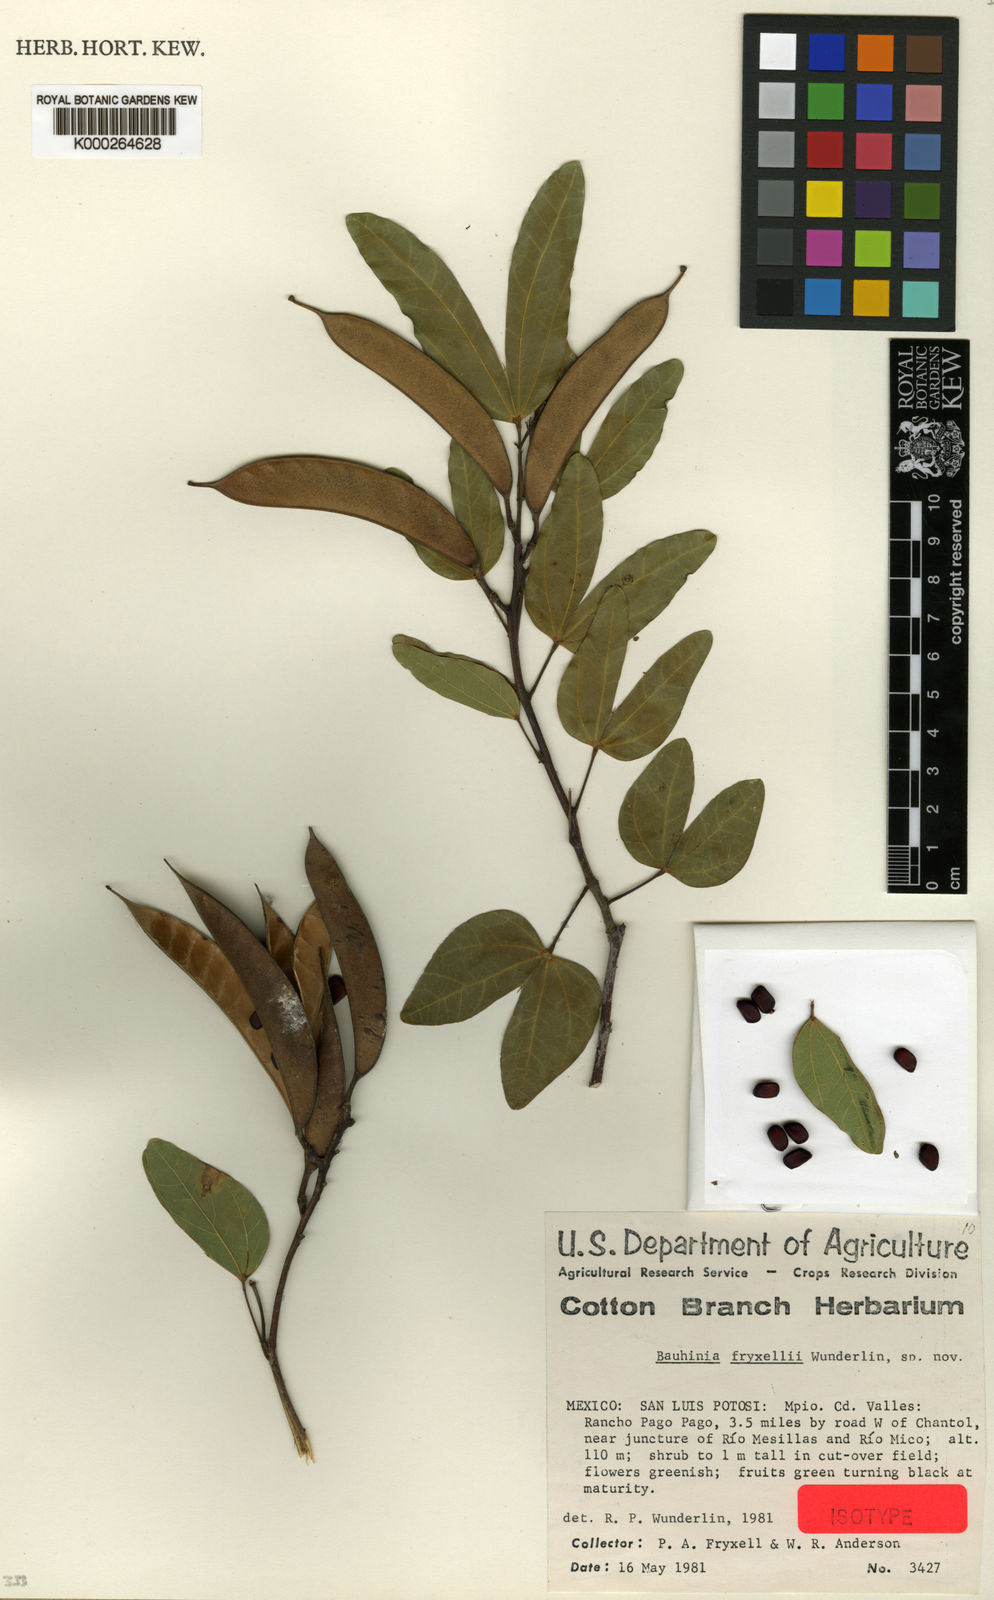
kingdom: Plantae
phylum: Tracheophyta
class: Magnoliopsida
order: Fabales
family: Fabaceae
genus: Bauhinia
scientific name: Bauhinia fryxellii
